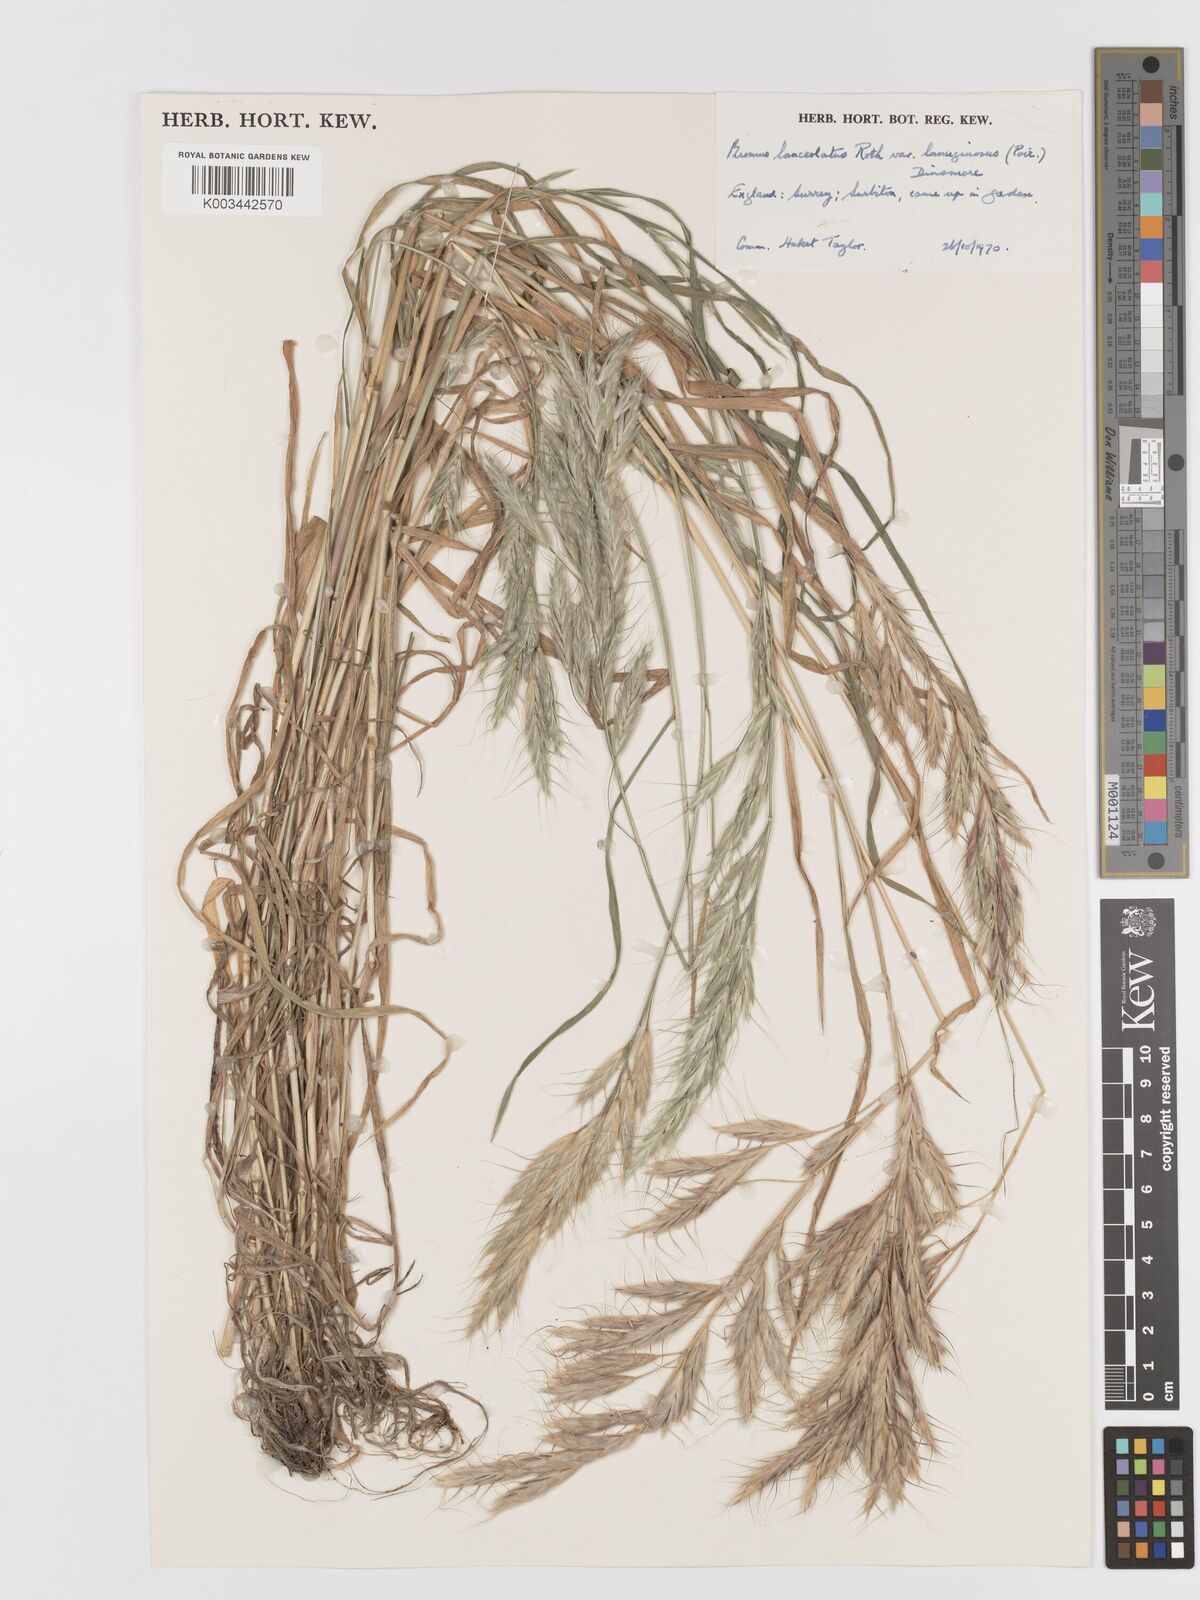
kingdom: Plantae
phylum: Tracheophyta
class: Liliopsida
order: Poales
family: Poaceae
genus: Bromus
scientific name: Bromus lanceolatus
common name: Mediterranean brome
